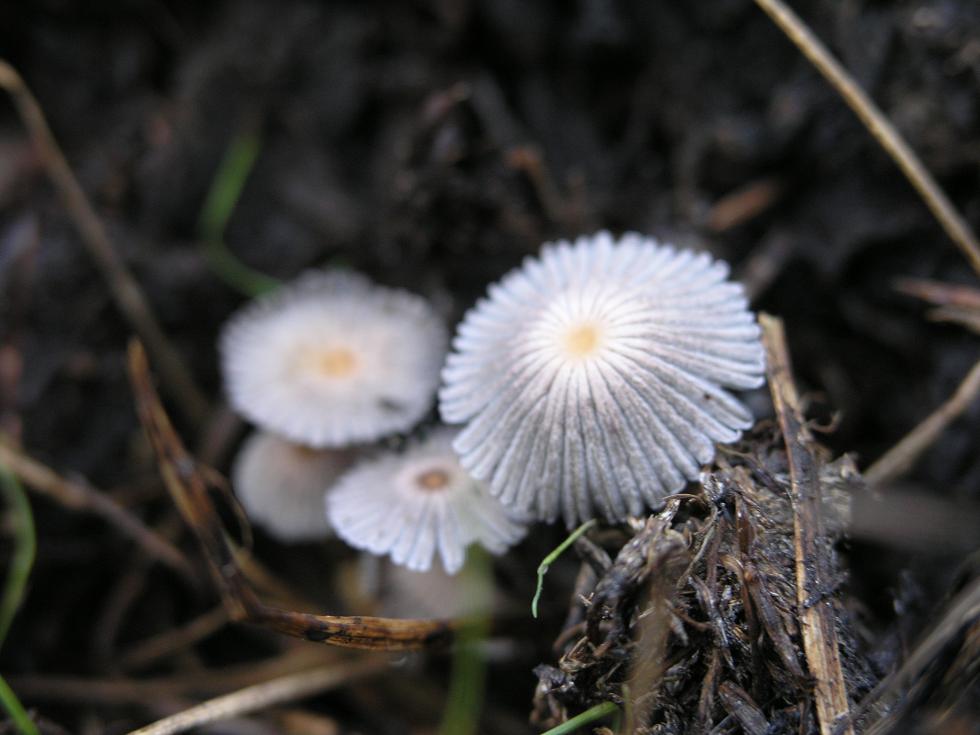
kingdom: Fungi
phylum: Basidiomycota
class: Agaricomycetes
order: Agaricales
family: Psathyrellaceae
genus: Tulosesus
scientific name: Tulosesus marculentus
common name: hexagonsporet blækhat
